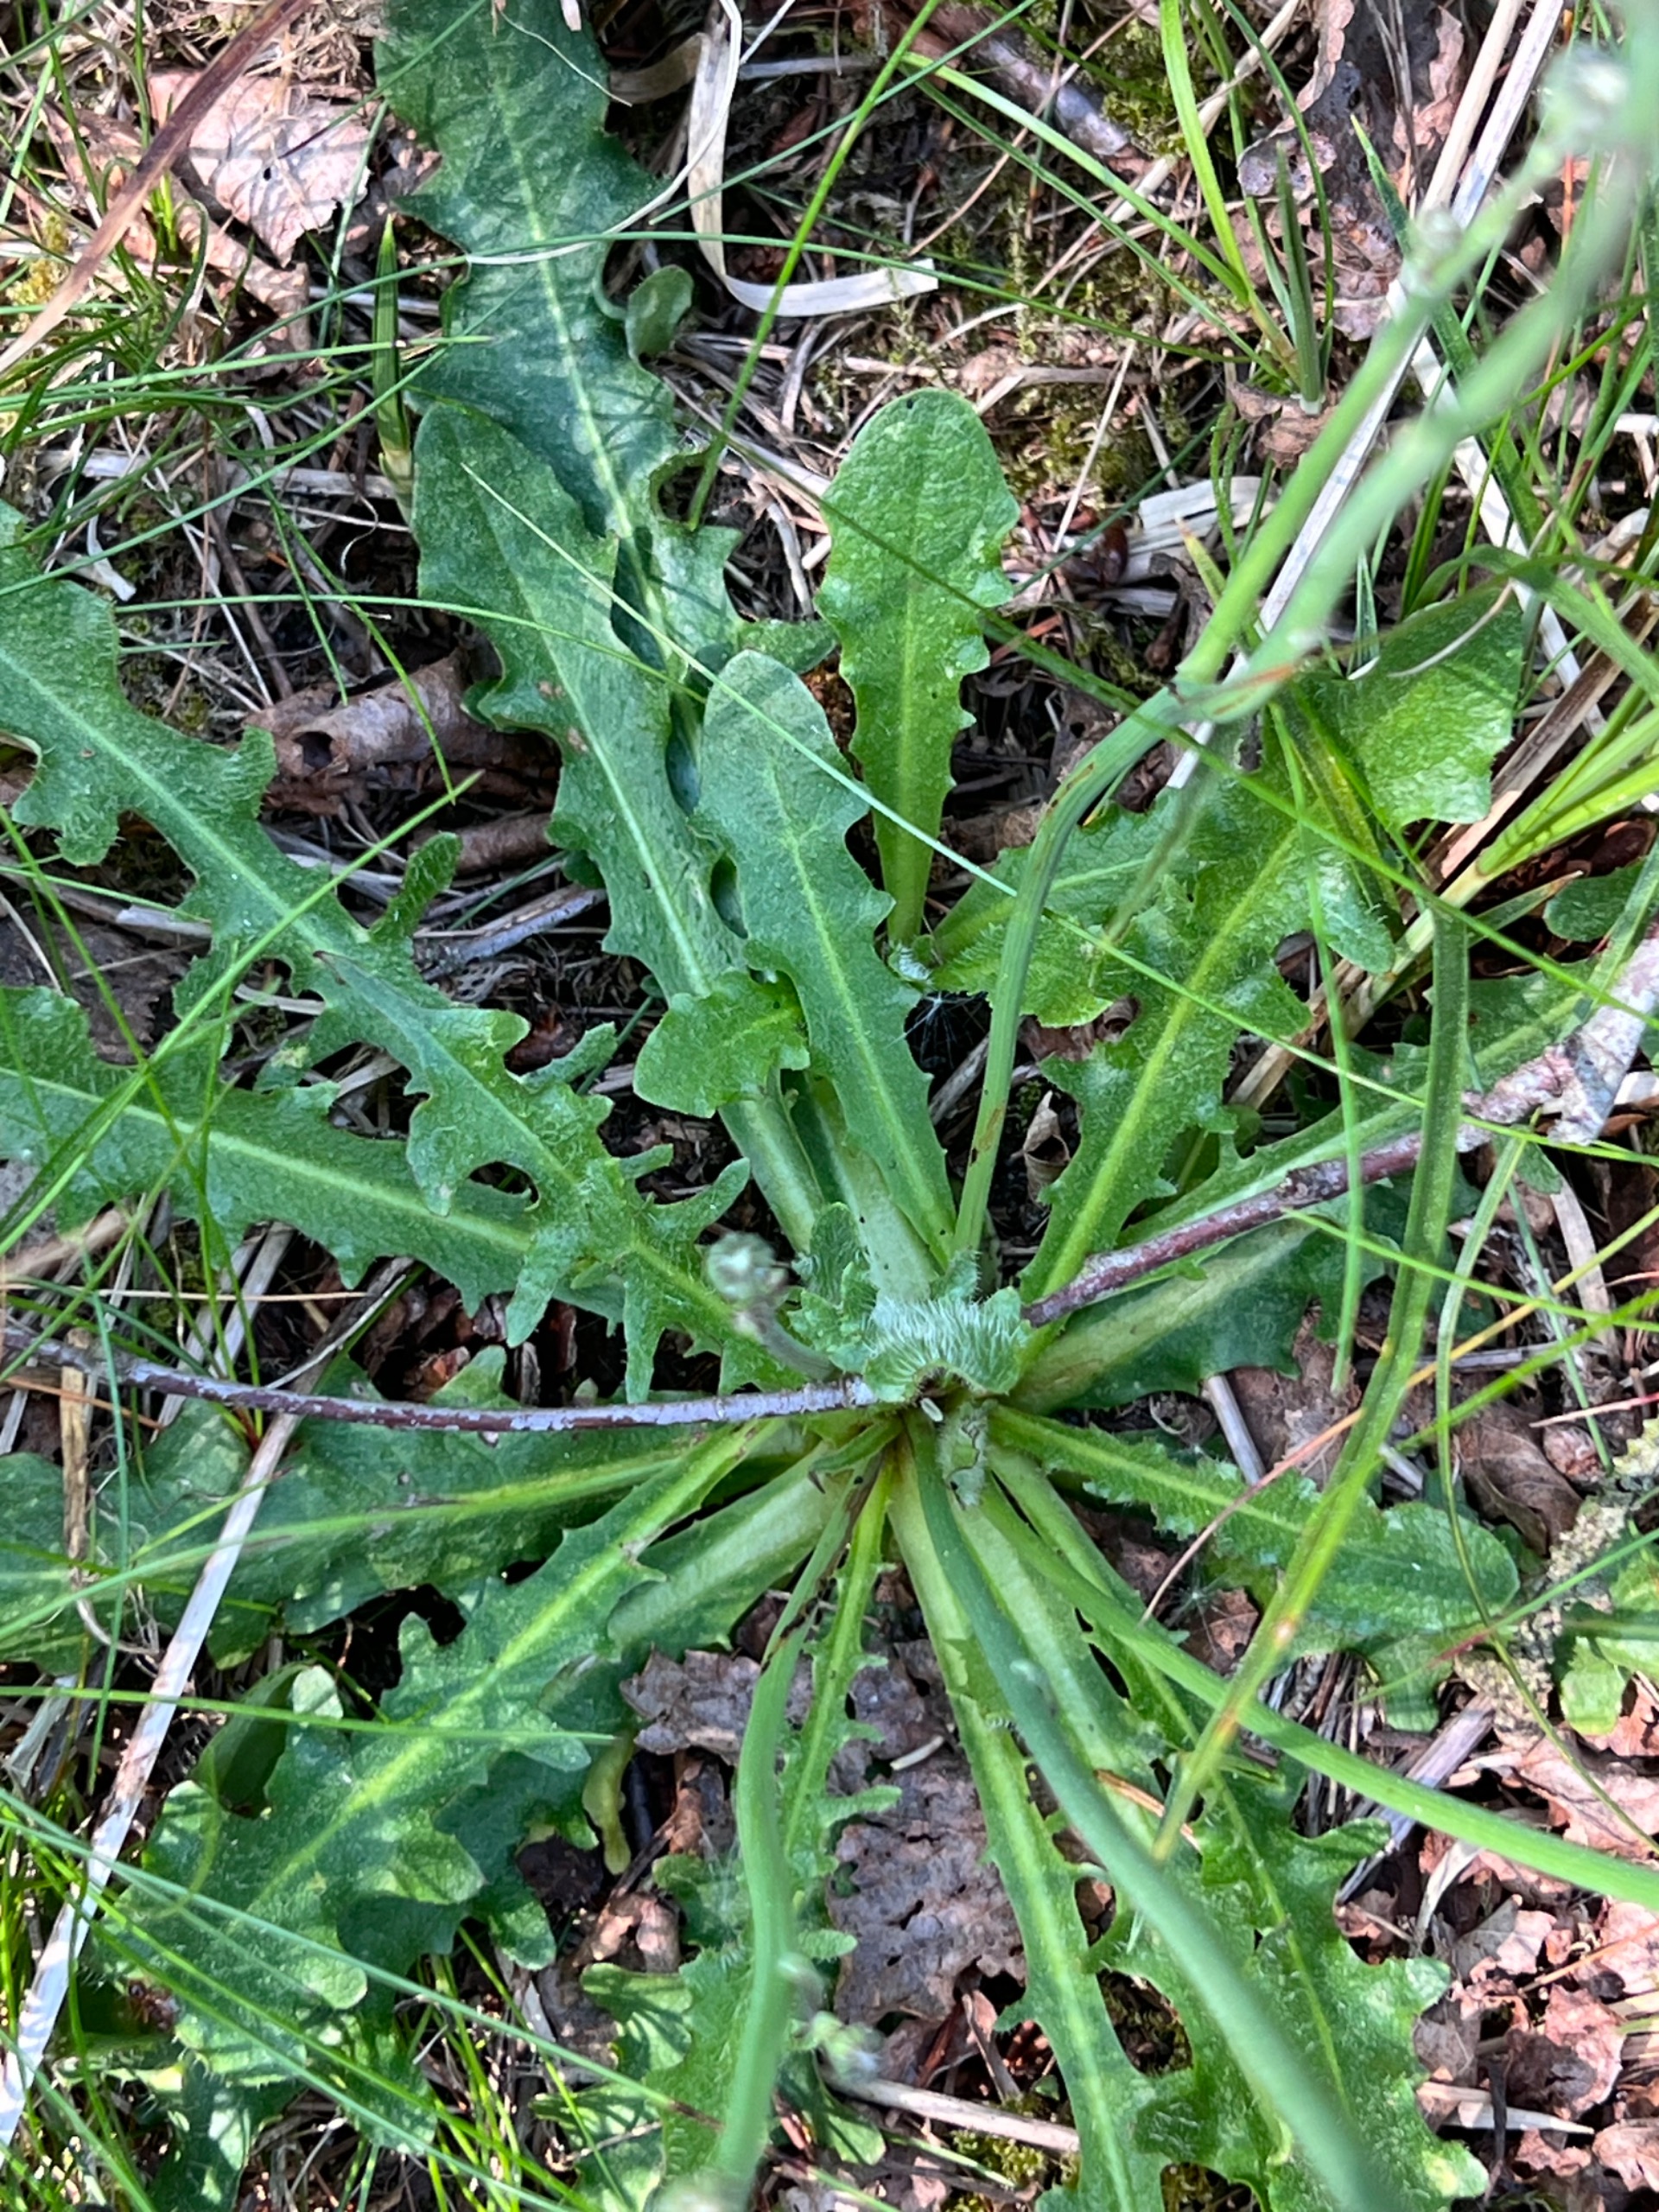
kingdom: Plantae
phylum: Tracheophyta
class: Magnoliopsida
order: Asterales
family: Asteraceae
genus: Hypochaeris
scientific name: Hypochaeris radicata
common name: Almindelig kongepen
